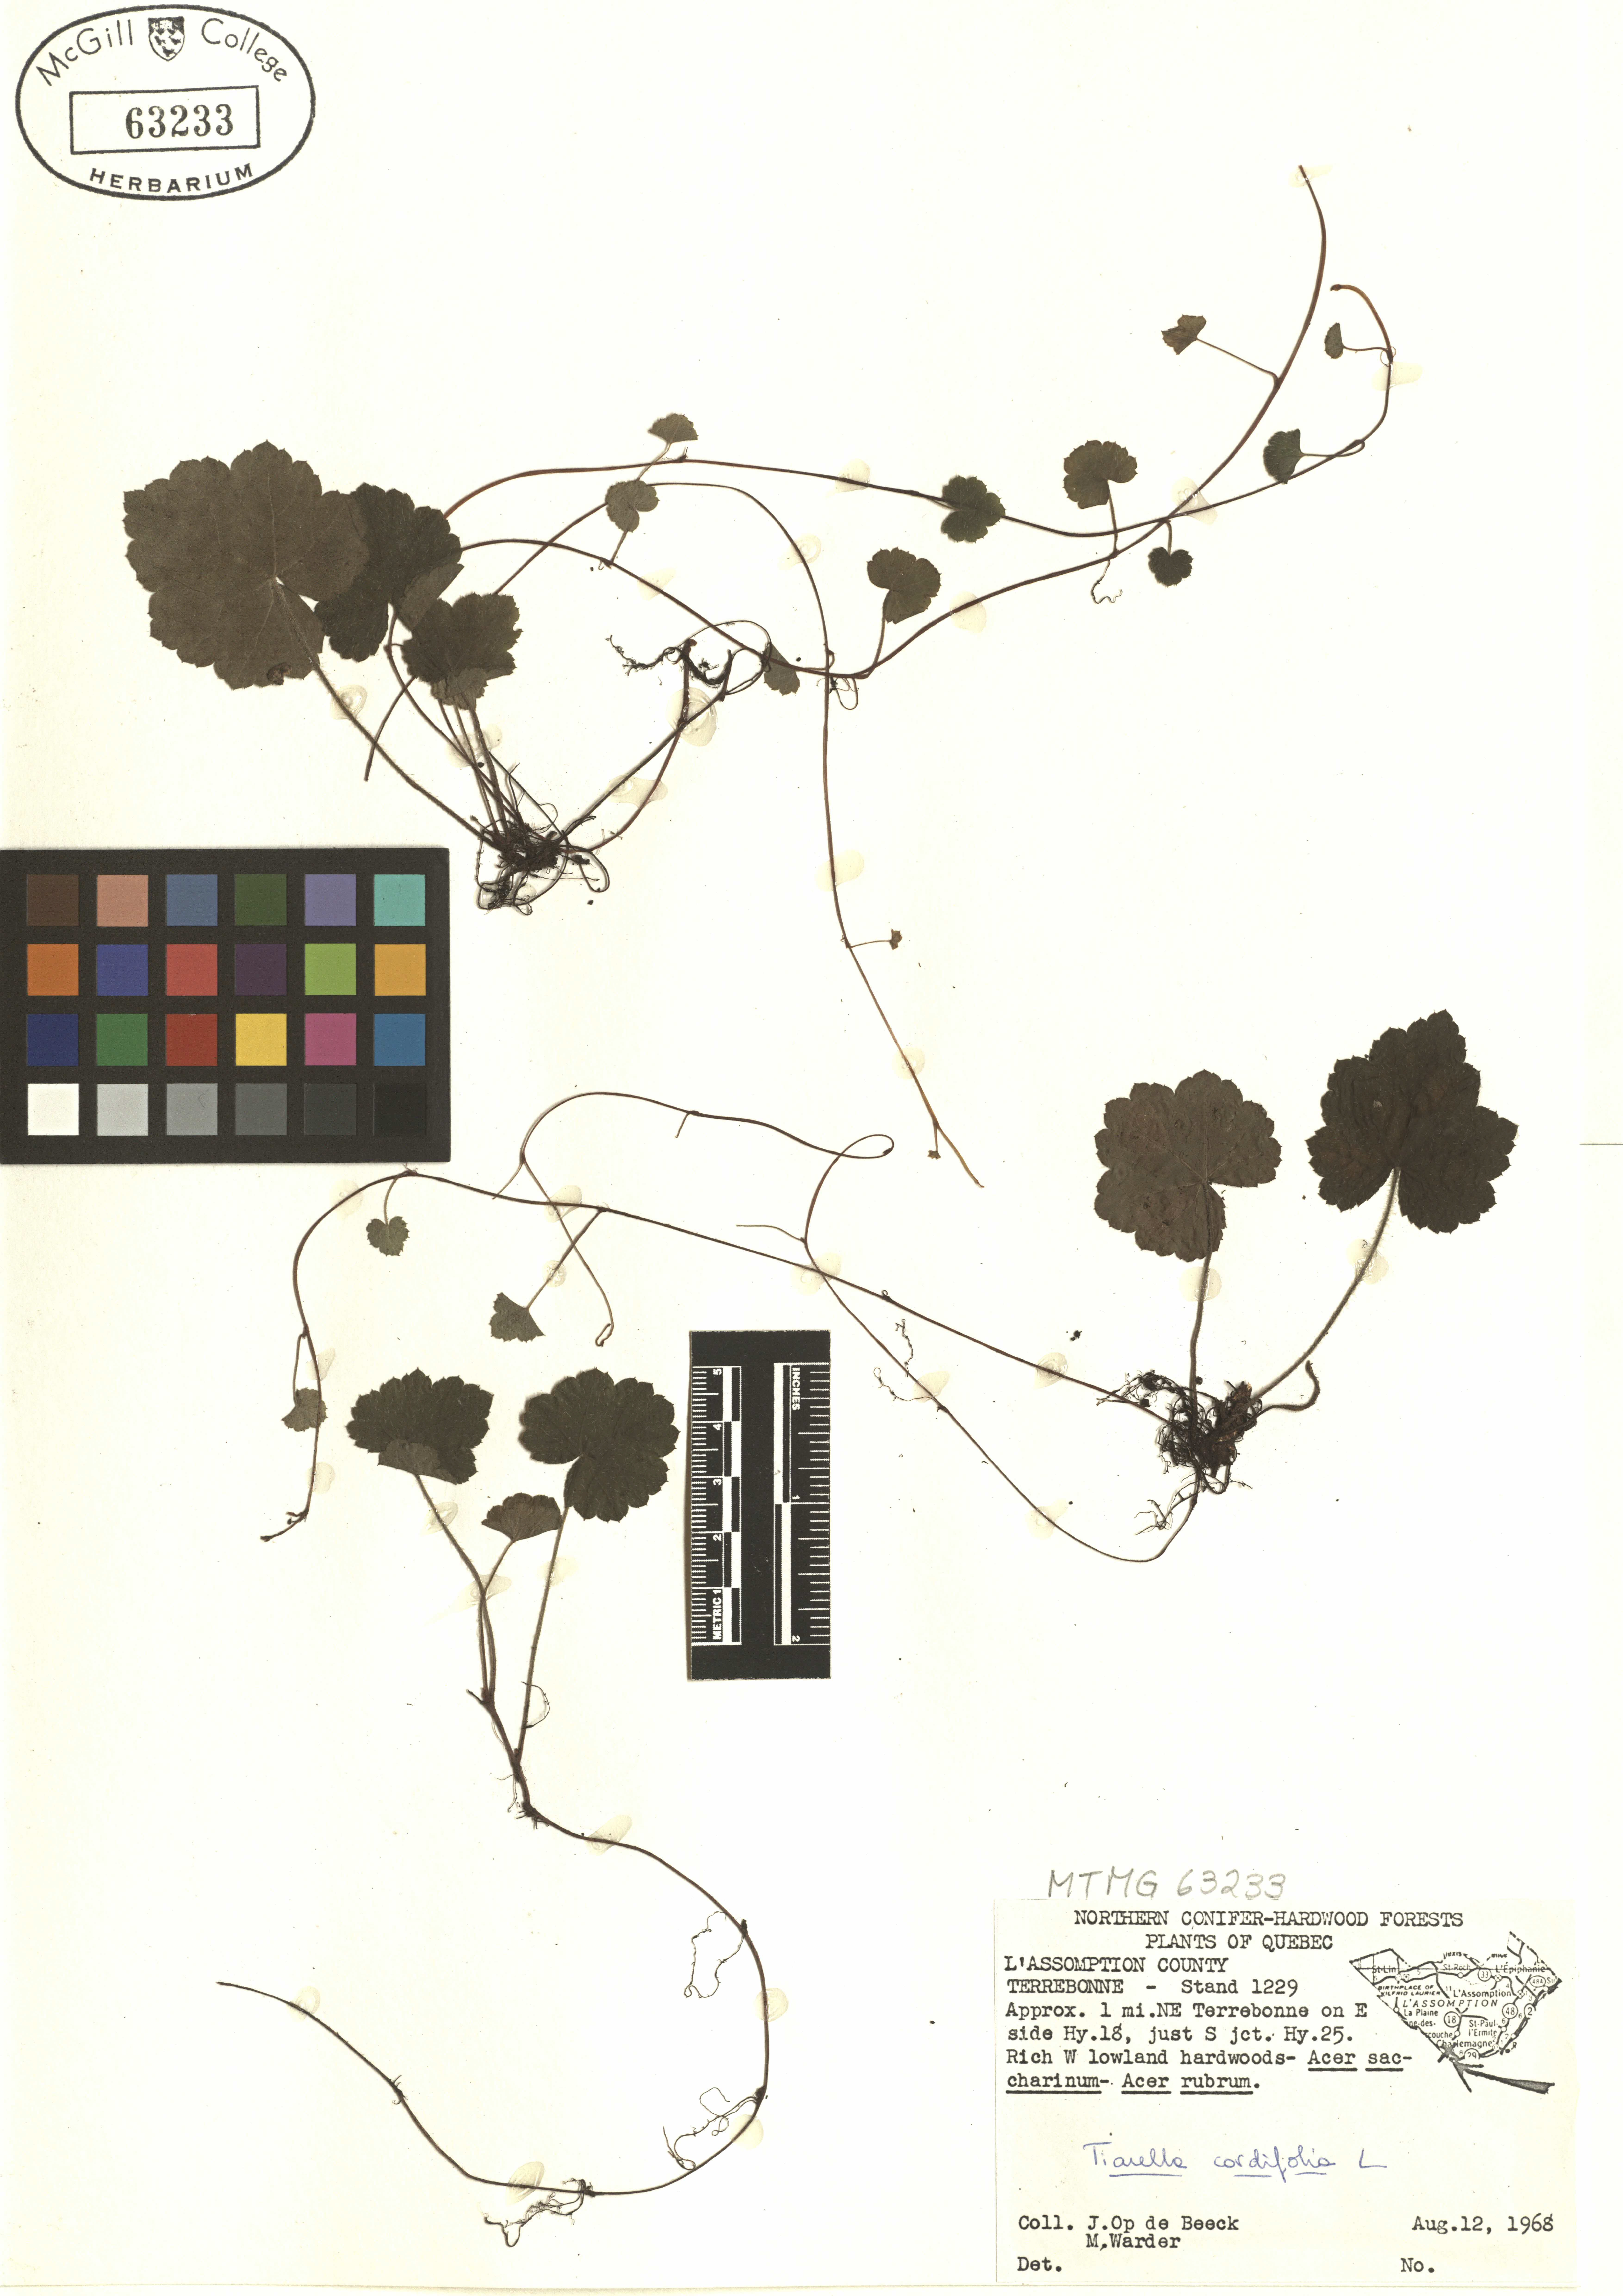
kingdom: Plantae
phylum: Tracheophyta
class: Magnoliopsida
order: Saxifragales
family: Saxifragaceae
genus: Tiarella
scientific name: Tiarella cordifolia
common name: Foamflower
